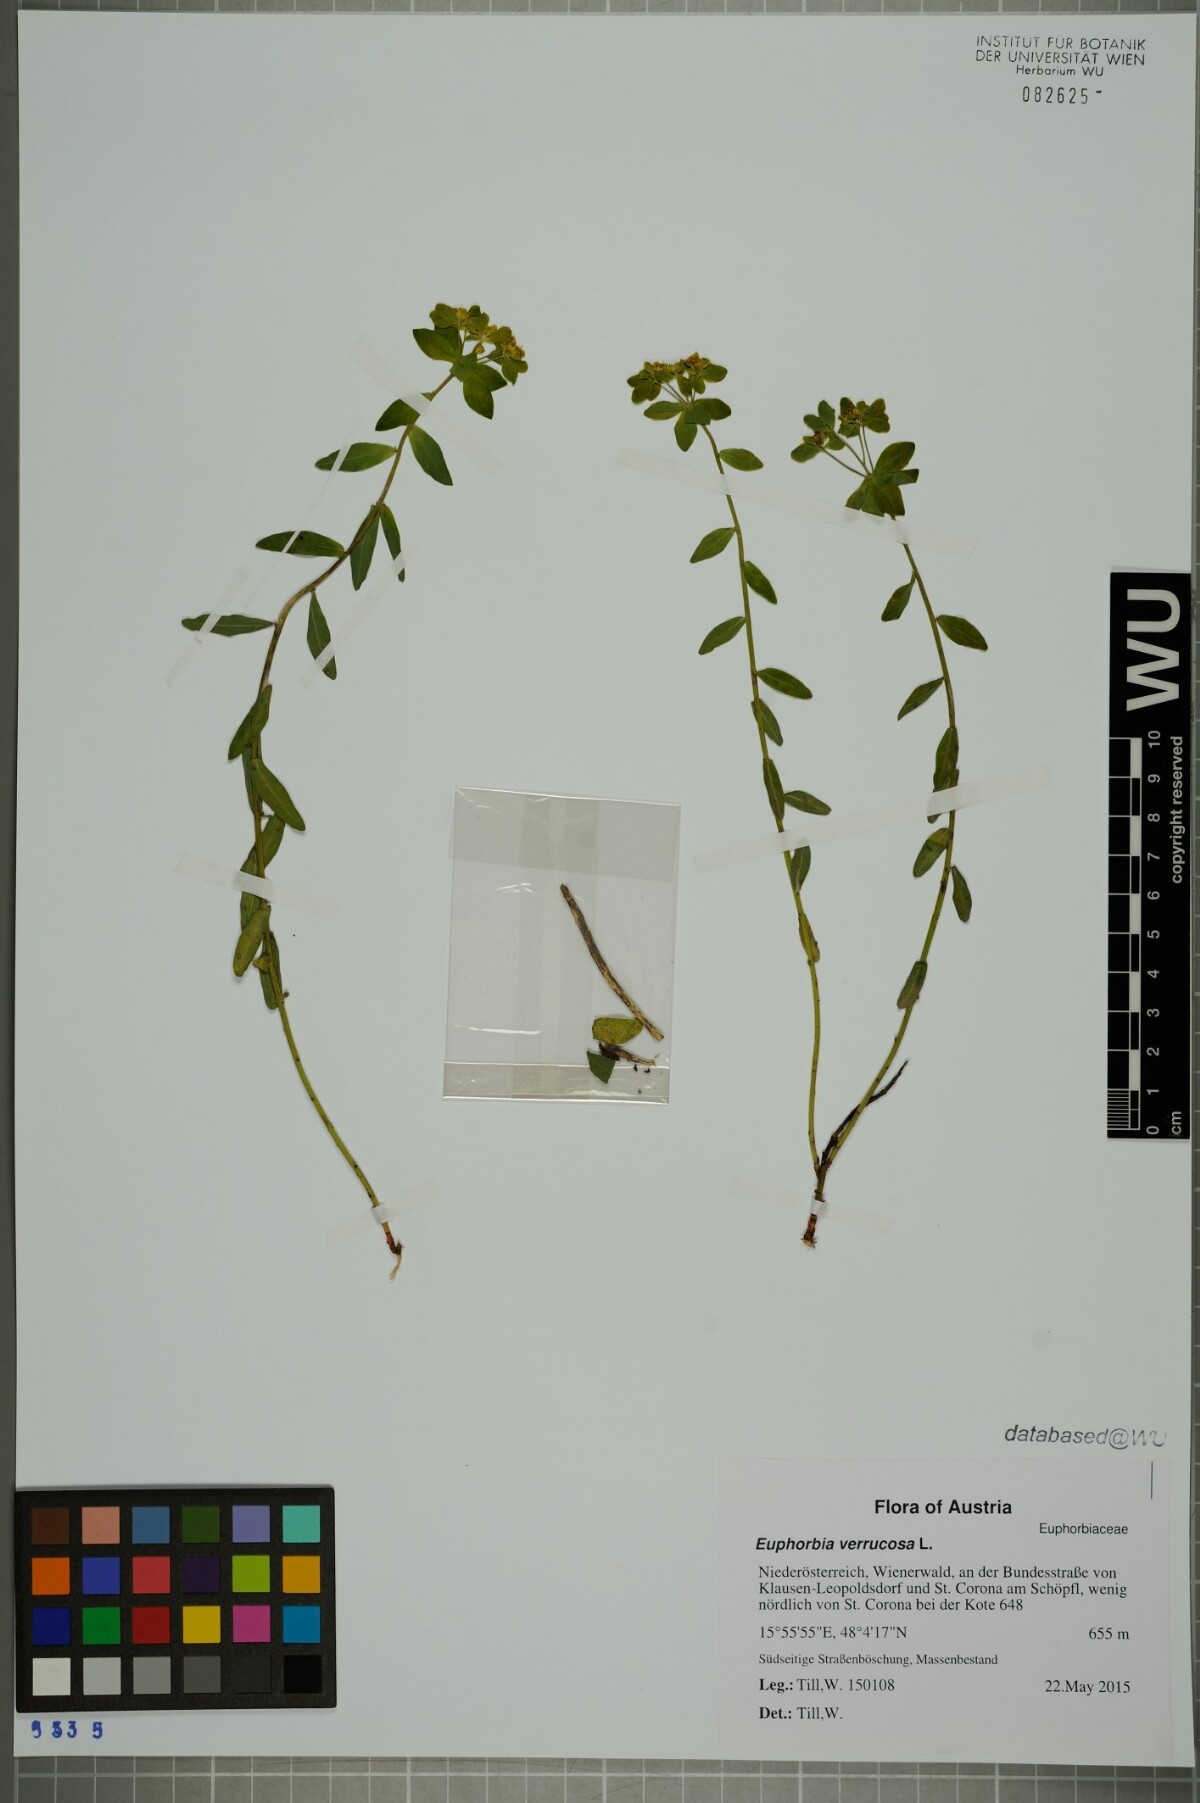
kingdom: Plantae
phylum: Tracheophyta
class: Magnoliopsida
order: Malpighiales
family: Euphorbiaceae
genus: Euphorbia
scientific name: Euphorbia verrucosa
